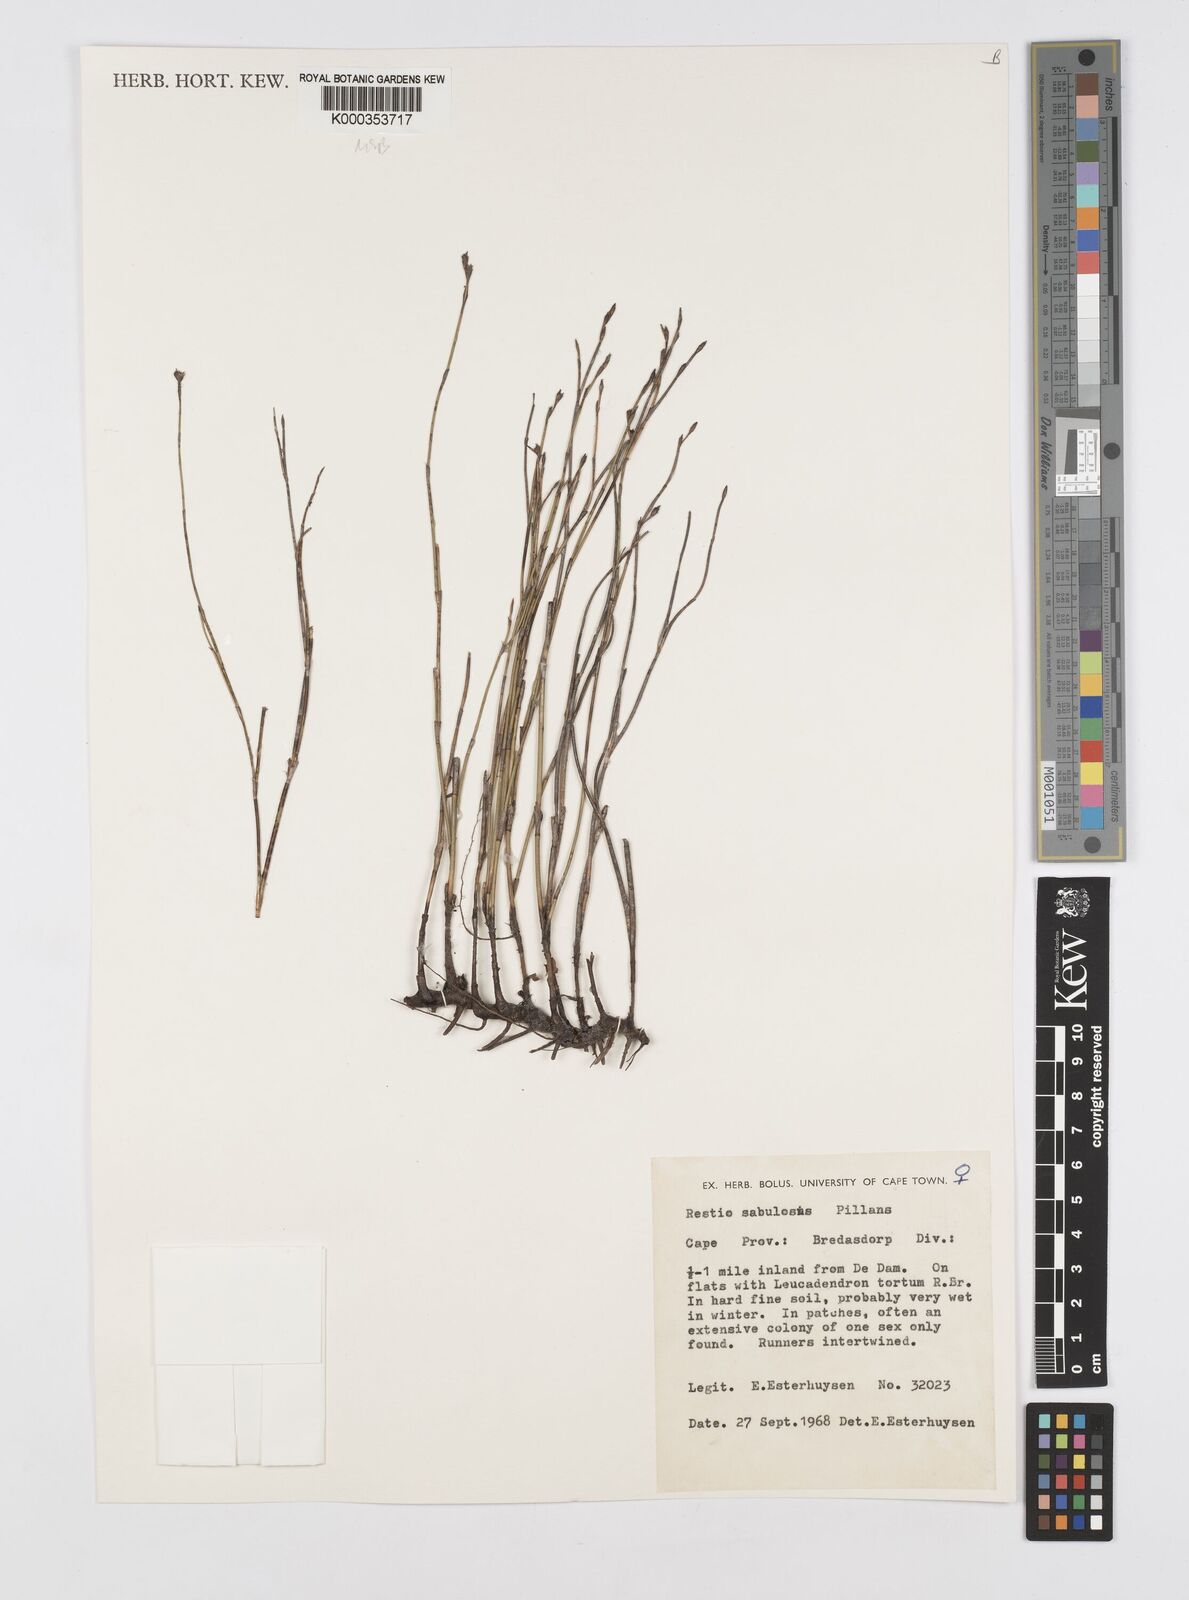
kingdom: Plantae
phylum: Tracheophyta
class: Liliopsida
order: Poales
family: Restionaceae
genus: Restio
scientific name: Restio sabulosus
